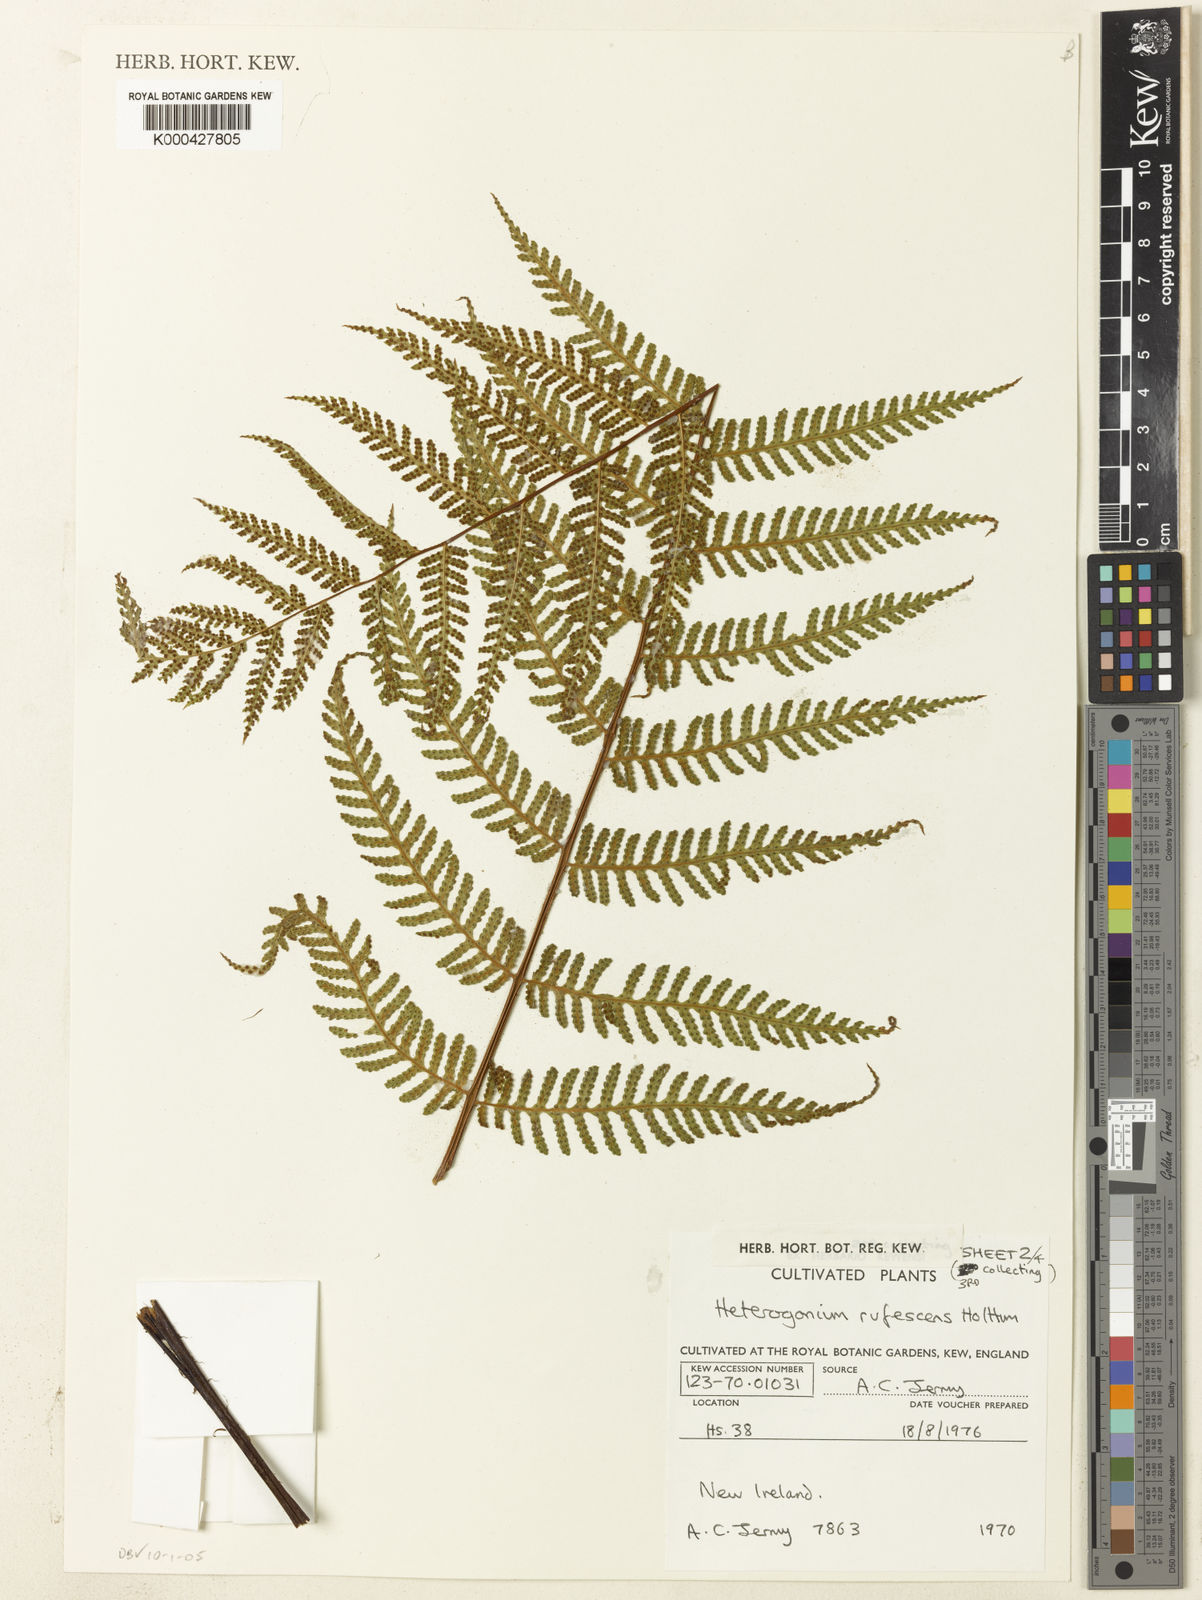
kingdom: Plantae
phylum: Tracheophyta
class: Polypodiopsida
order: Polypodiales
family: Tectariaceae
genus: Tectaria
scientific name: Tectaria jermyi
